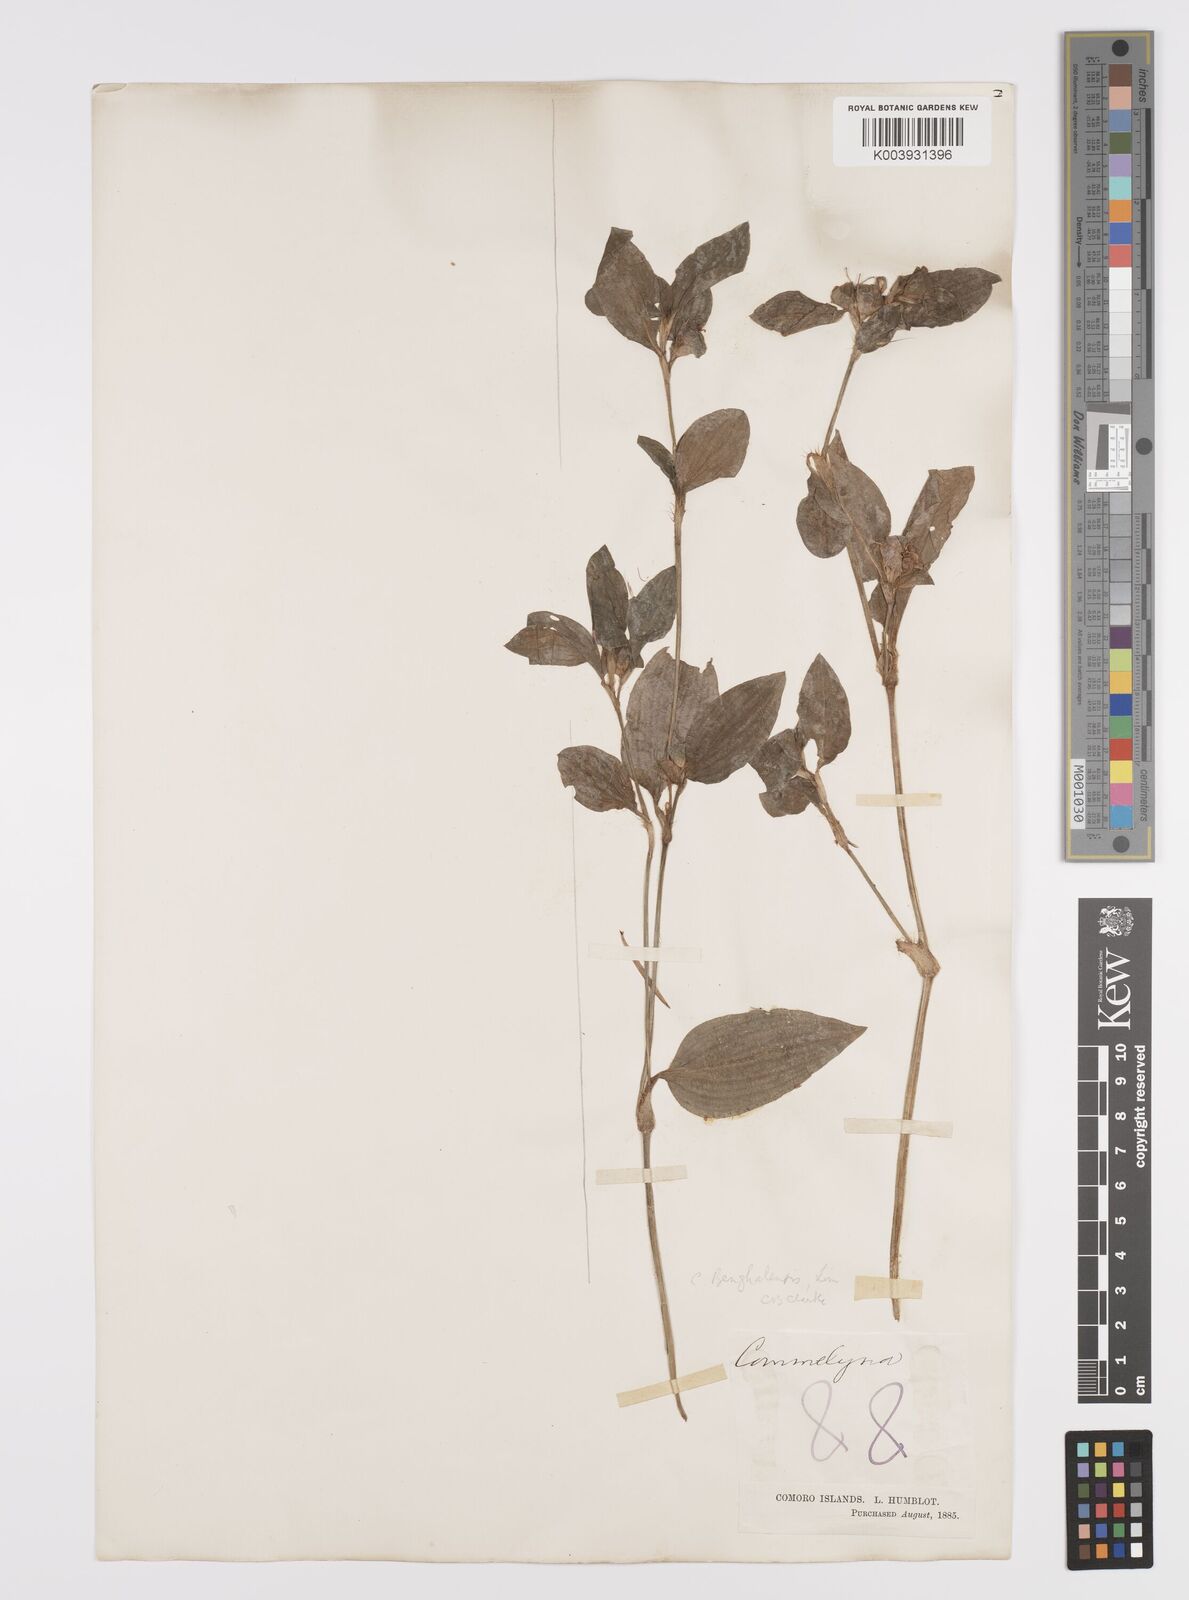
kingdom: Plantae
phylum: Tracheophyta
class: Liliopsida
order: Commelinales
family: Commelinaceae
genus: Commelina
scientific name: Commelina benghalensis
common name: Jio
